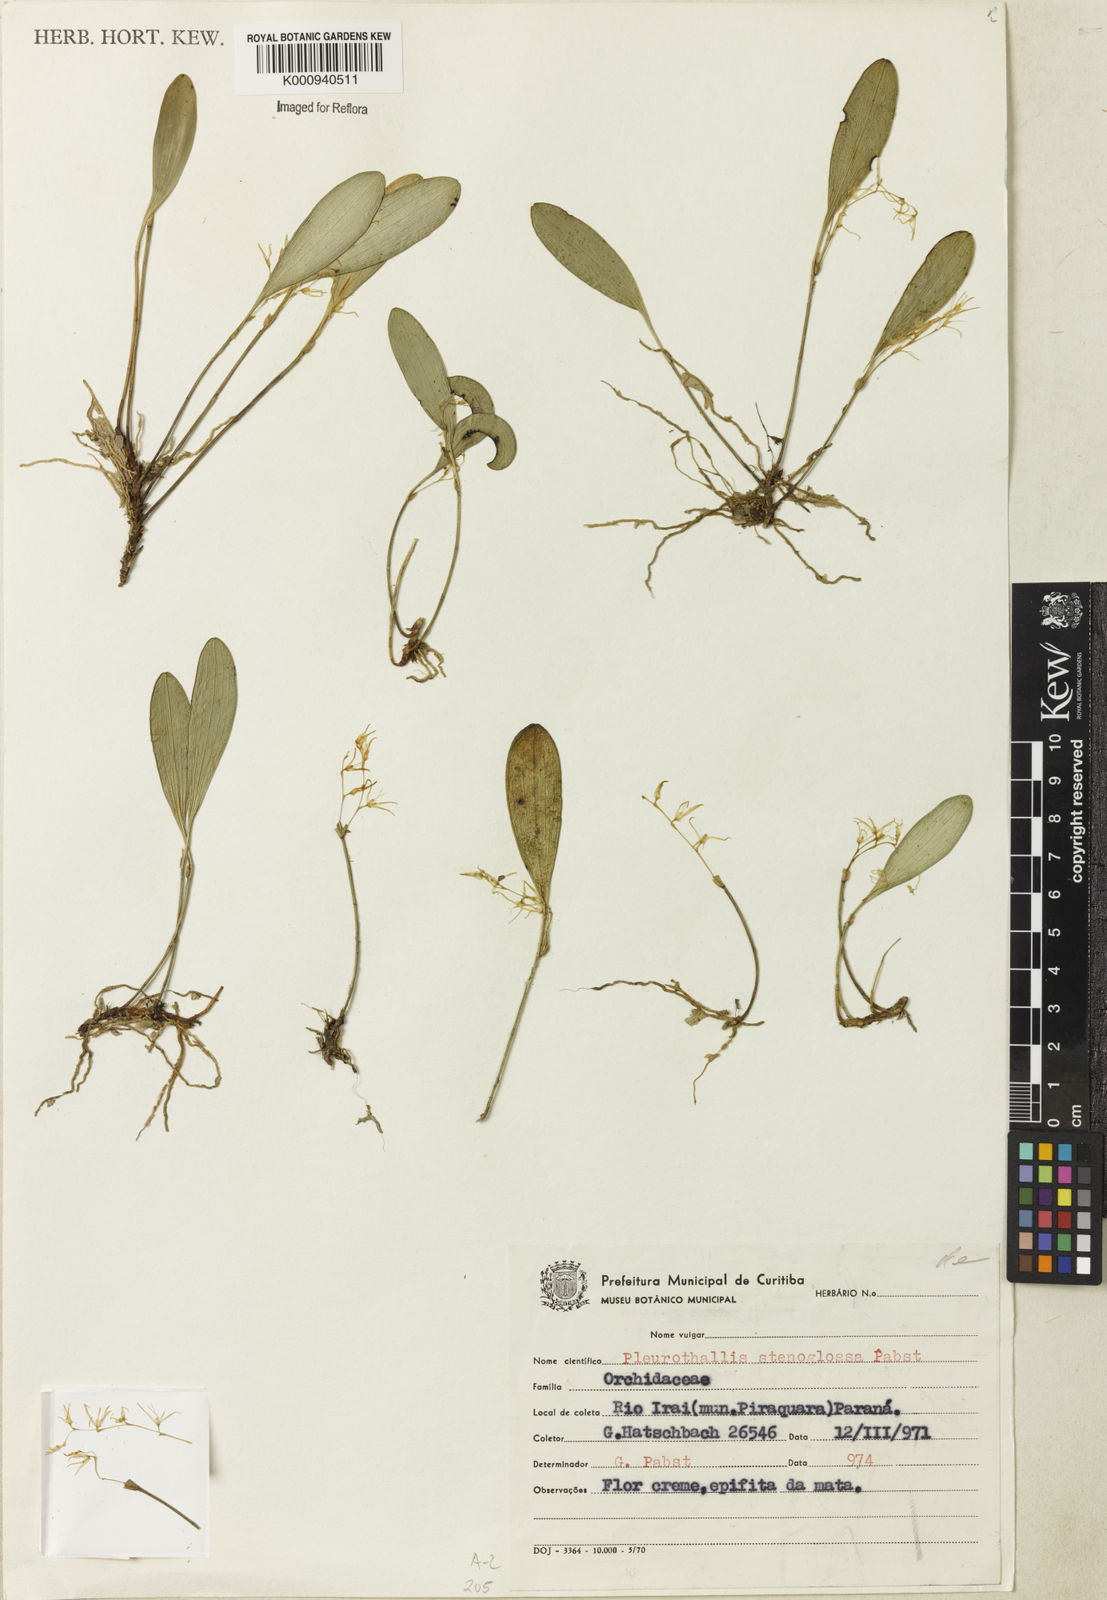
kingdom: Plantae
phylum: Tracheophyta
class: Liliopsida
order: Asparagales
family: Orchidaceae
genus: Anathallis
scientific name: Anathallis obovata
